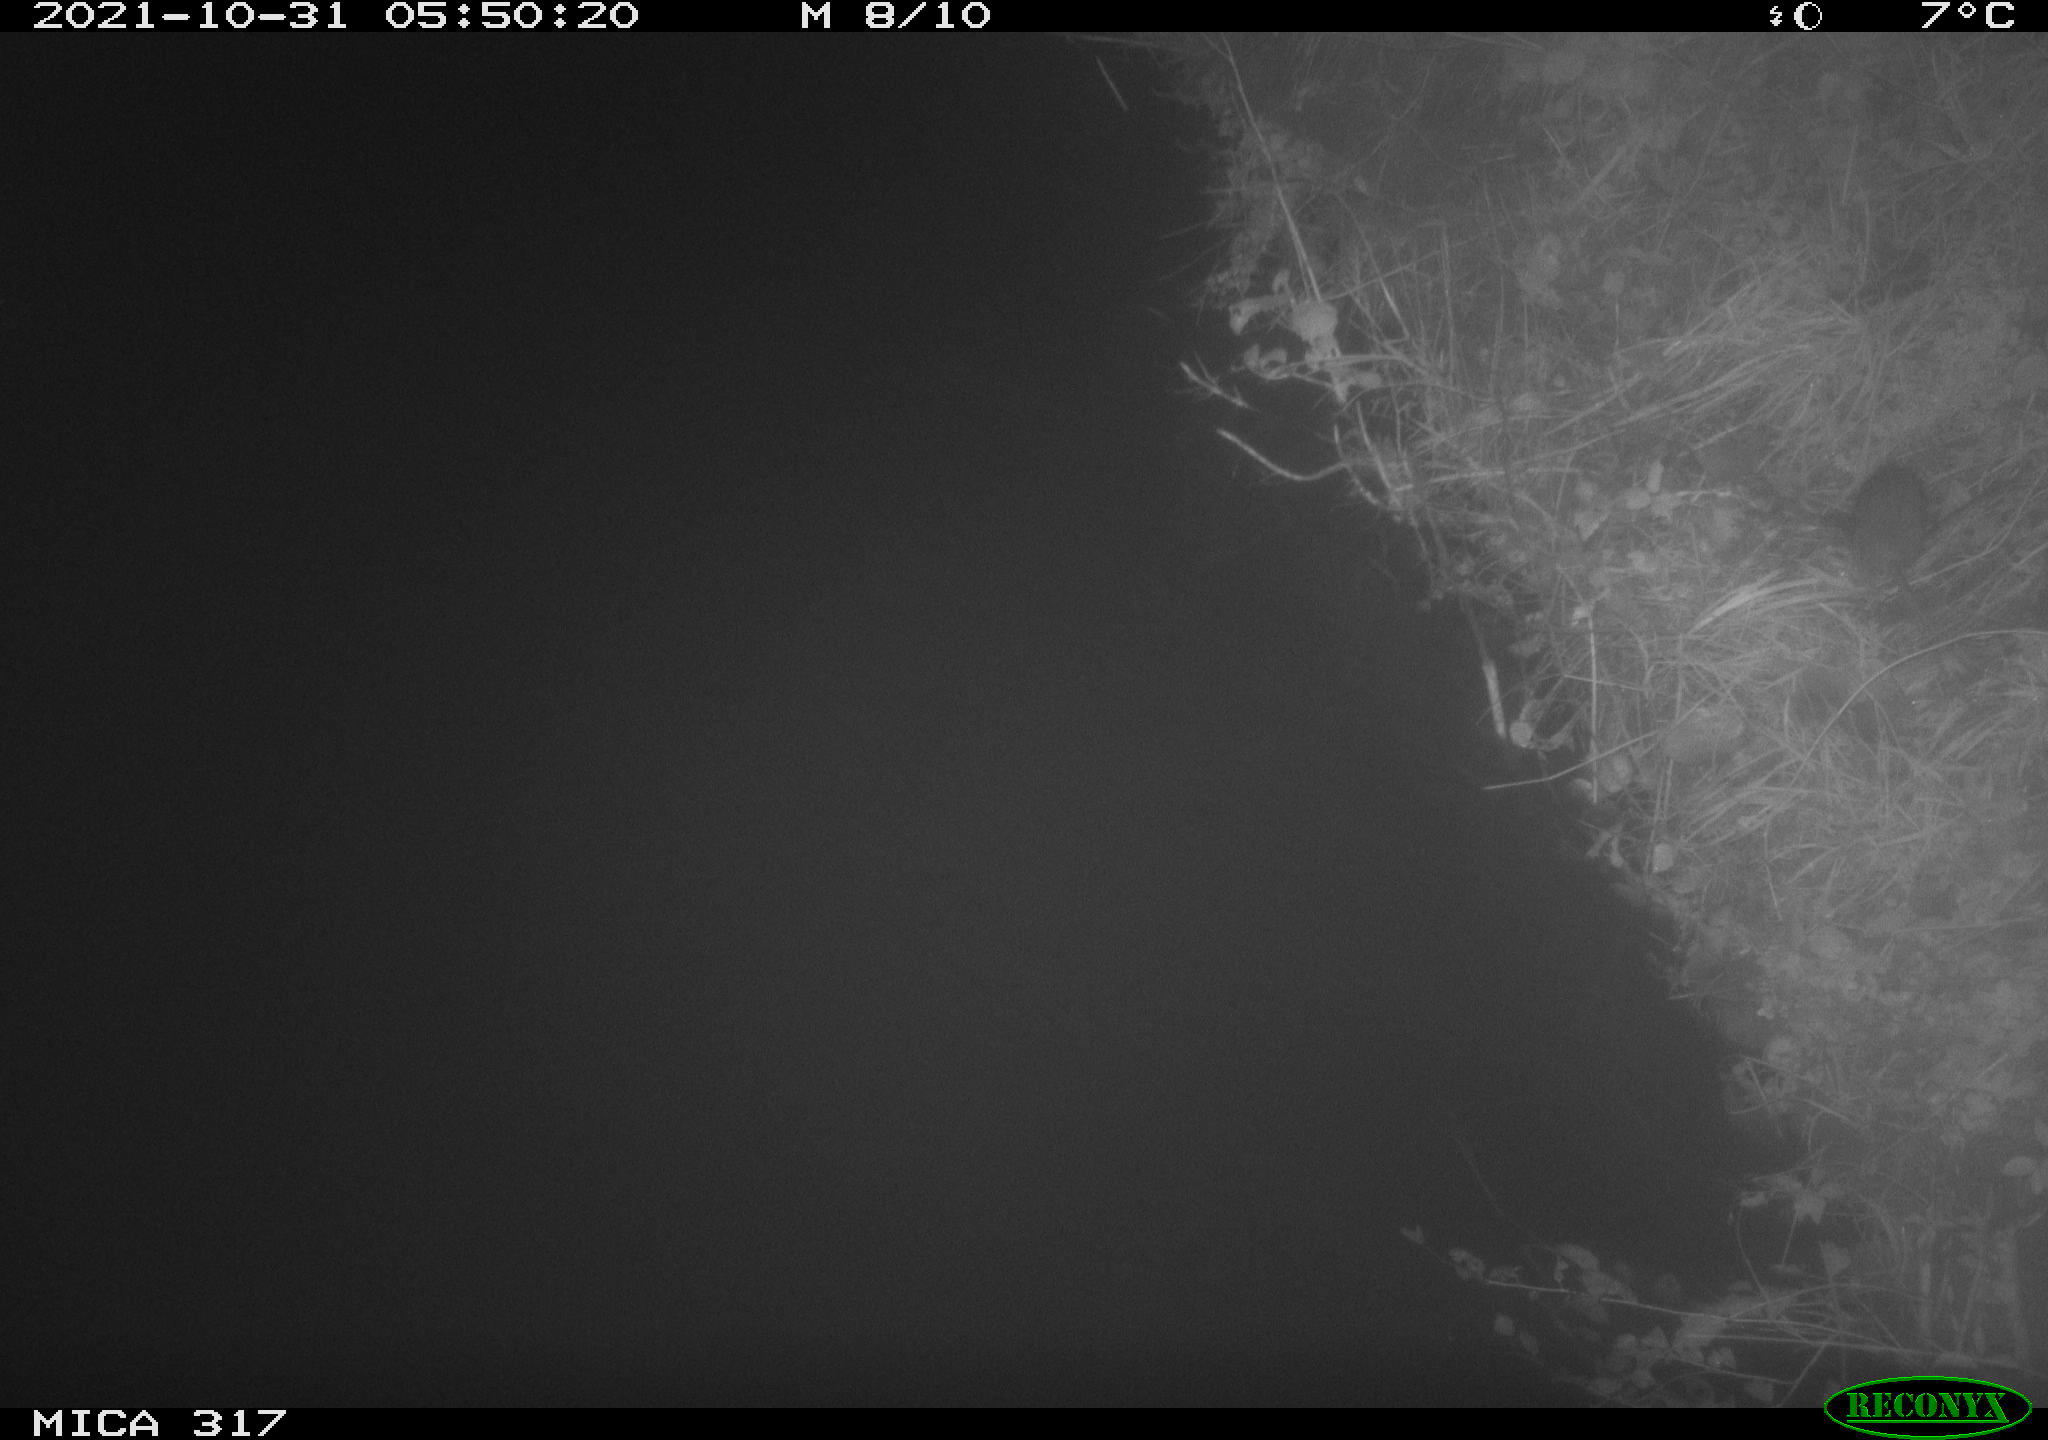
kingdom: Animalia
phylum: Chordata
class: Mammalia
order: Rodentia
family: Muridae
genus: Rattus
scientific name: Rattus norvegicus
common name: Brown rat
